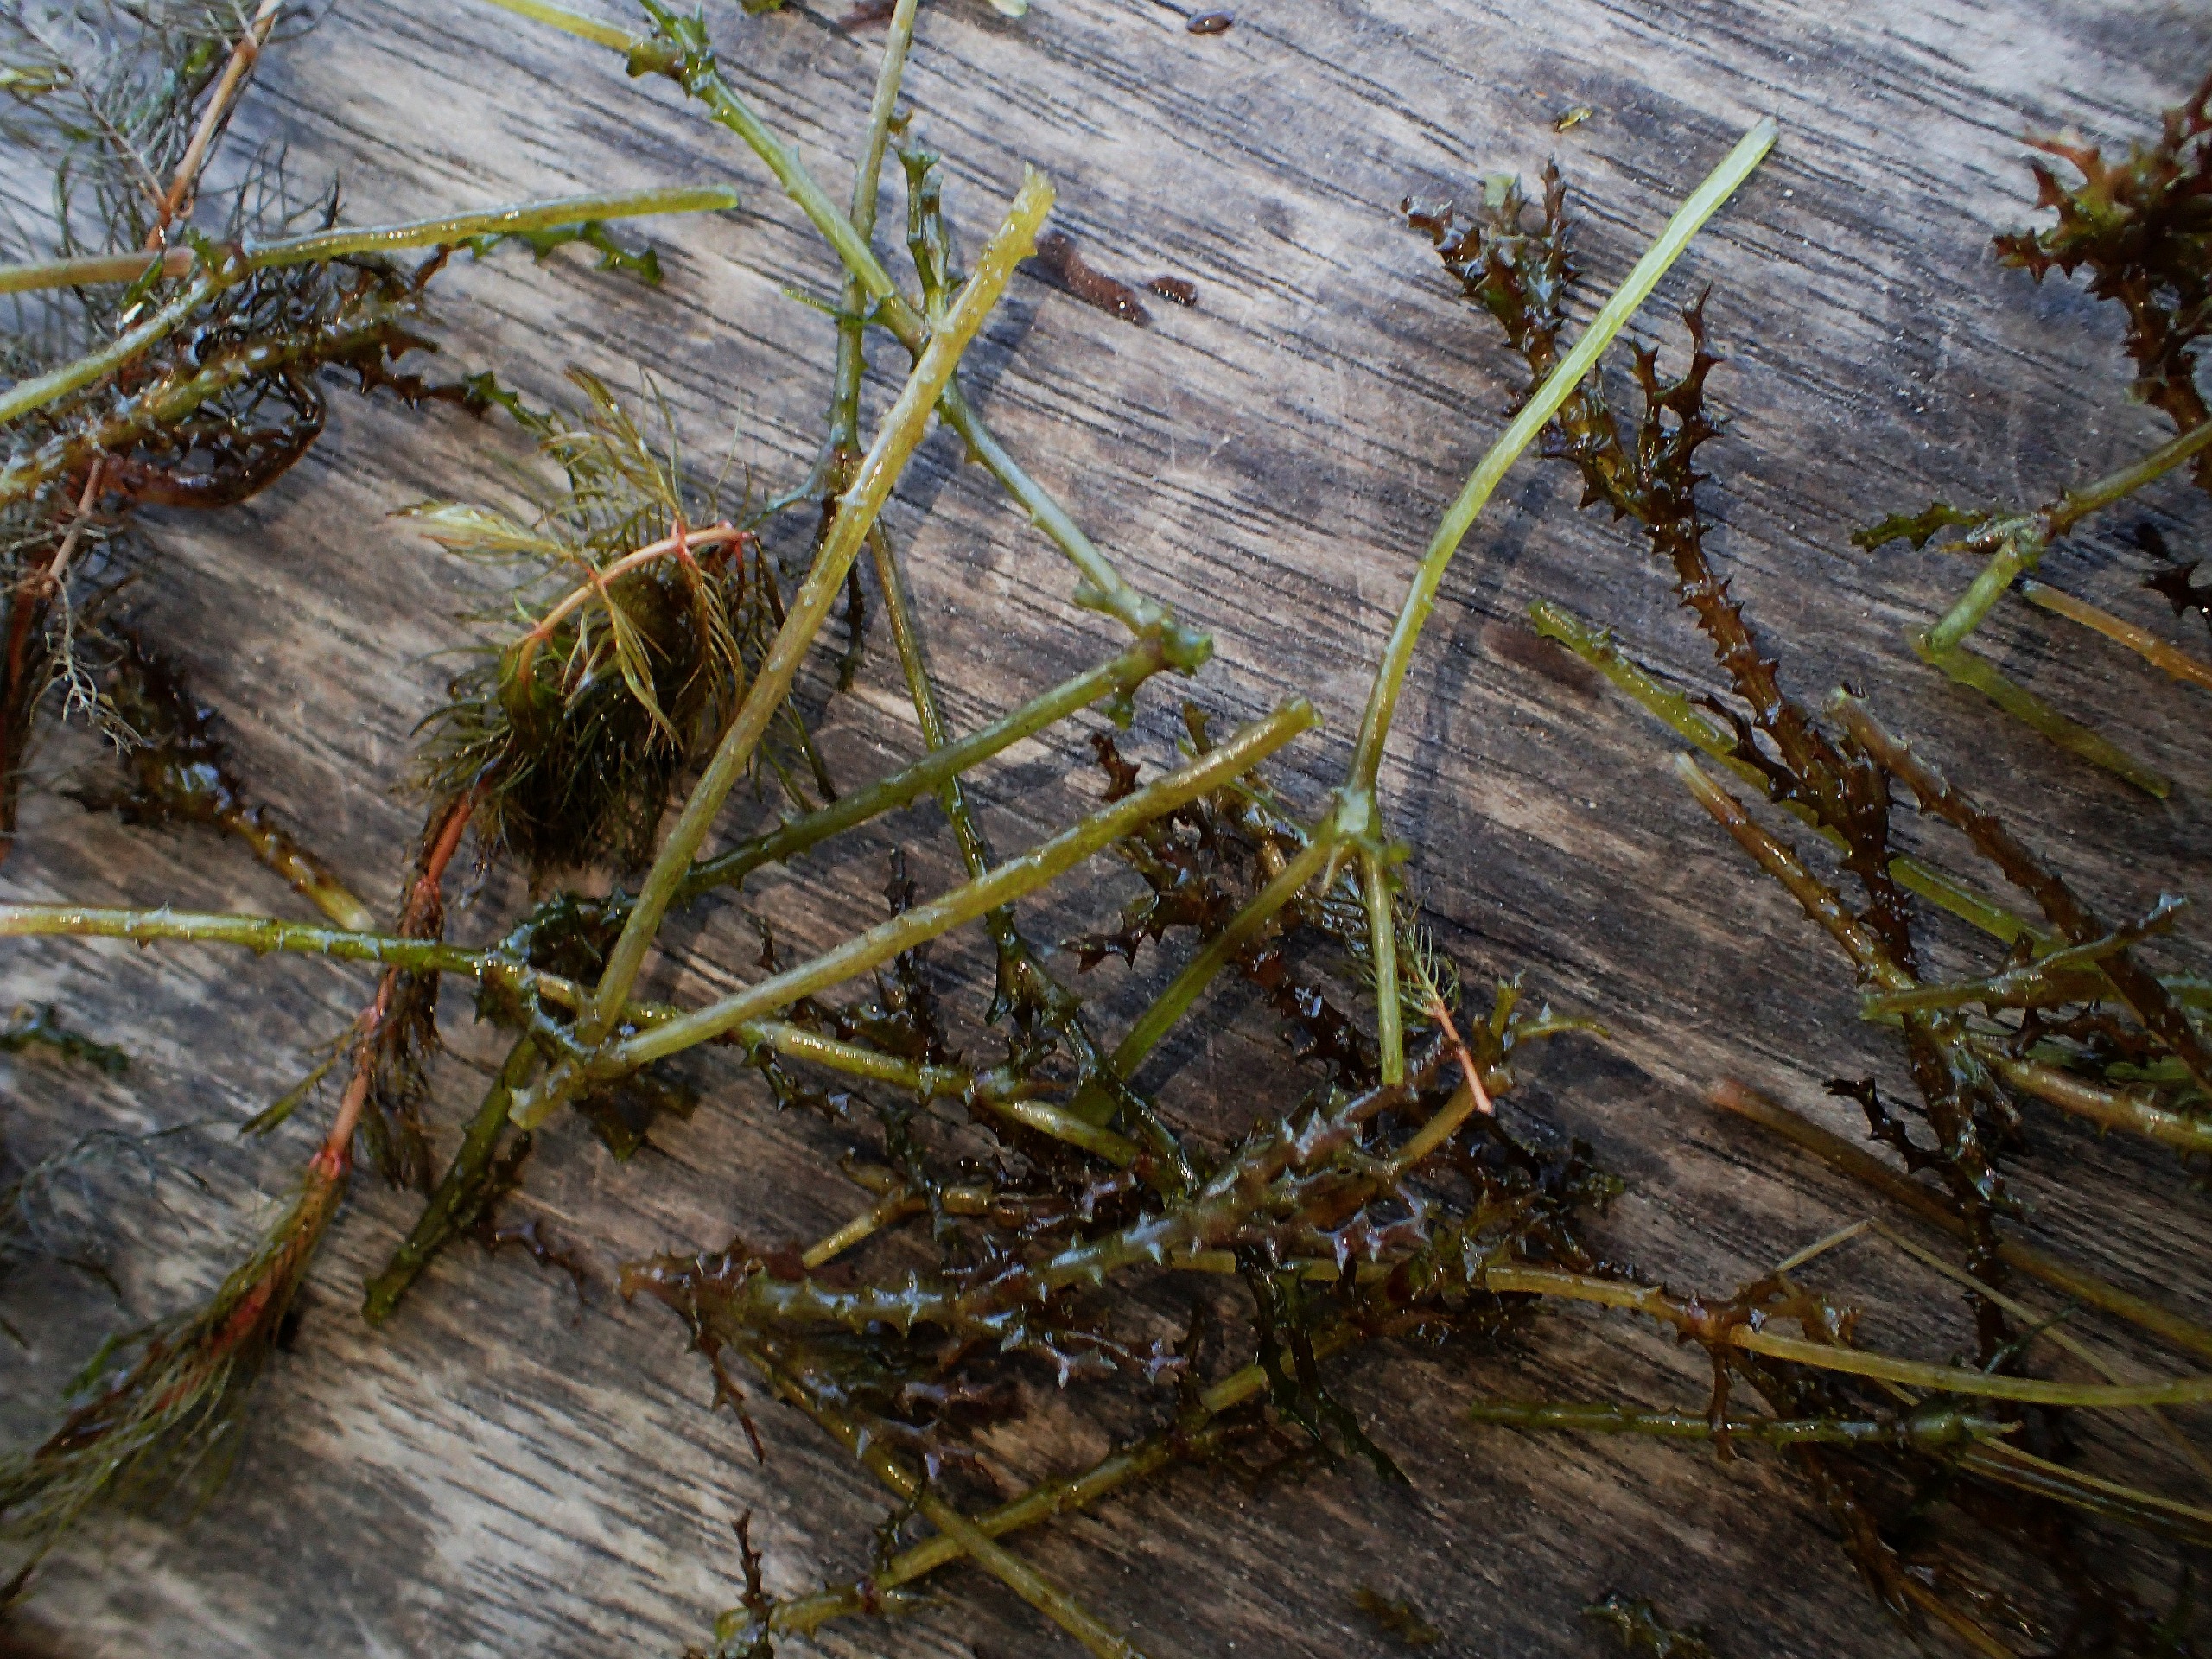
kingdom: Plantae
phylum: Tracheophyta
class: Liliopsida
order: Alismatales
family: Hydrocharitaceae
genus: Najas
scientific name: Najas marina
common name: Stor najade
